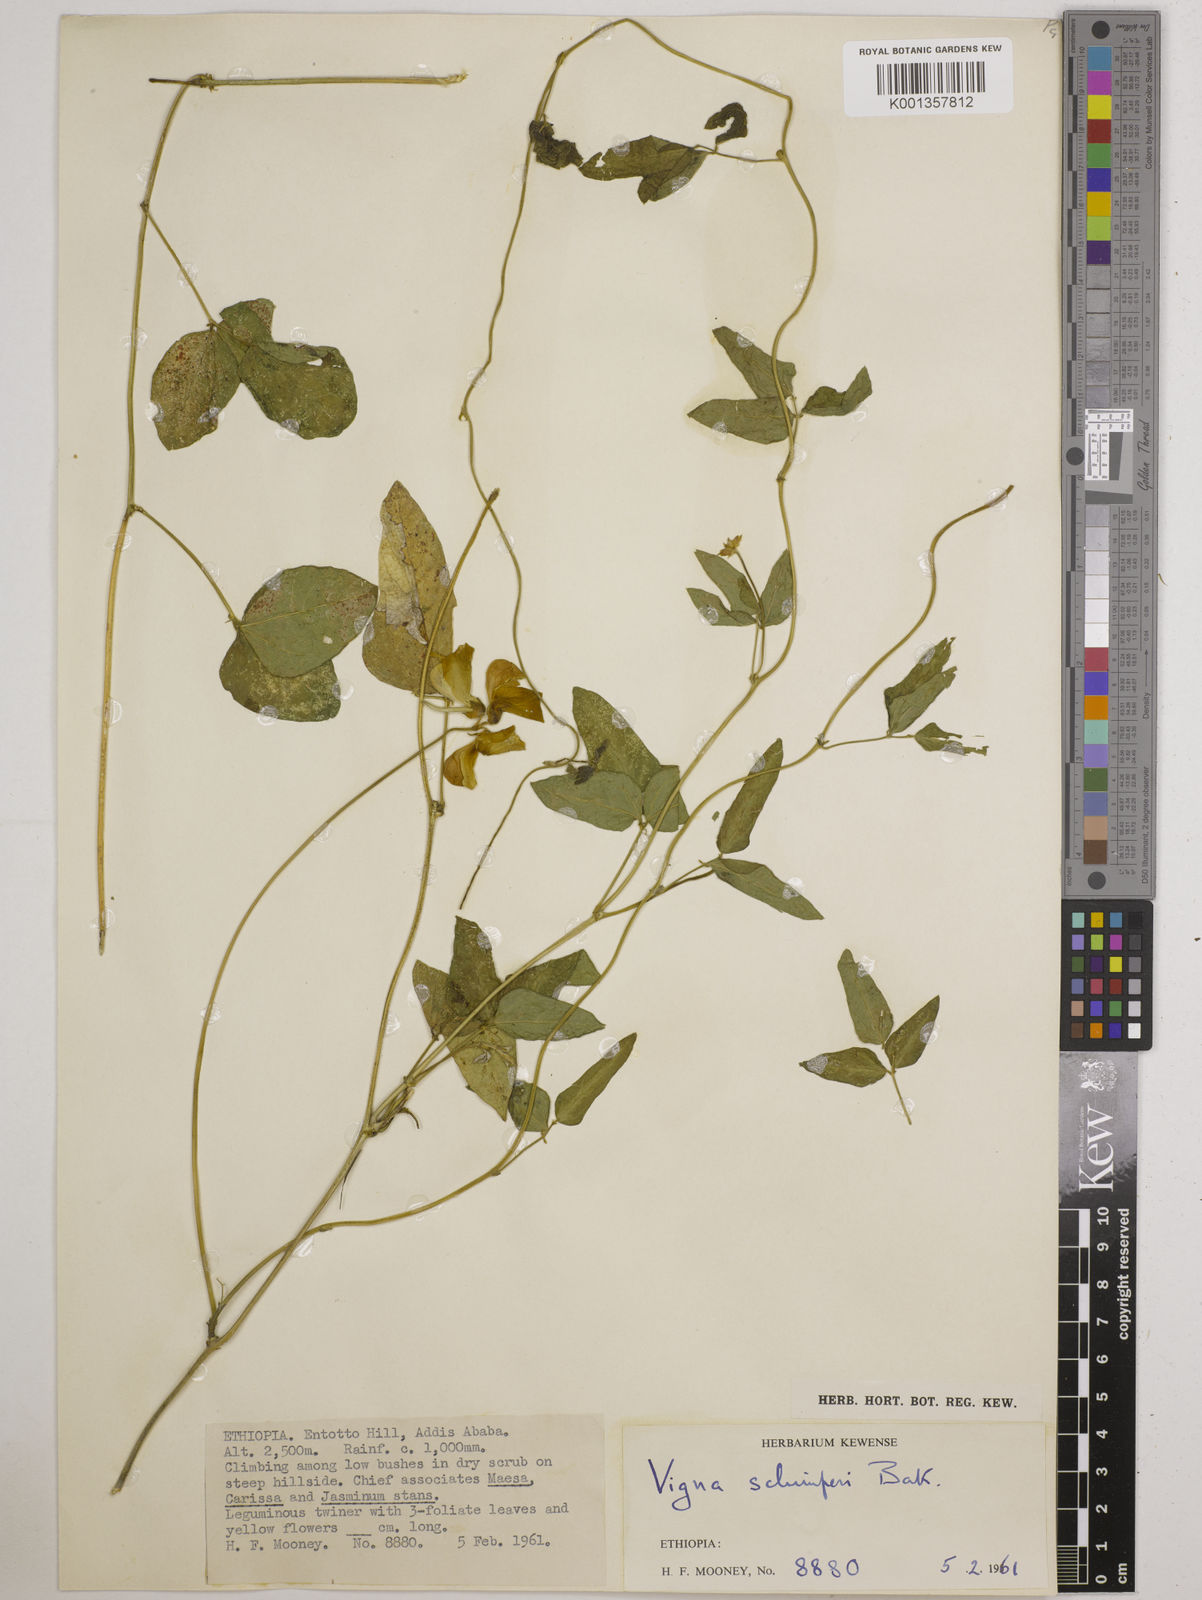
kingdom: Plantae
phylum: Tracheophyta
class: Magnoliopsida
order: Fabales
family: Fabaceae
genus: Vigna
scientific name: Vigna schimperi
